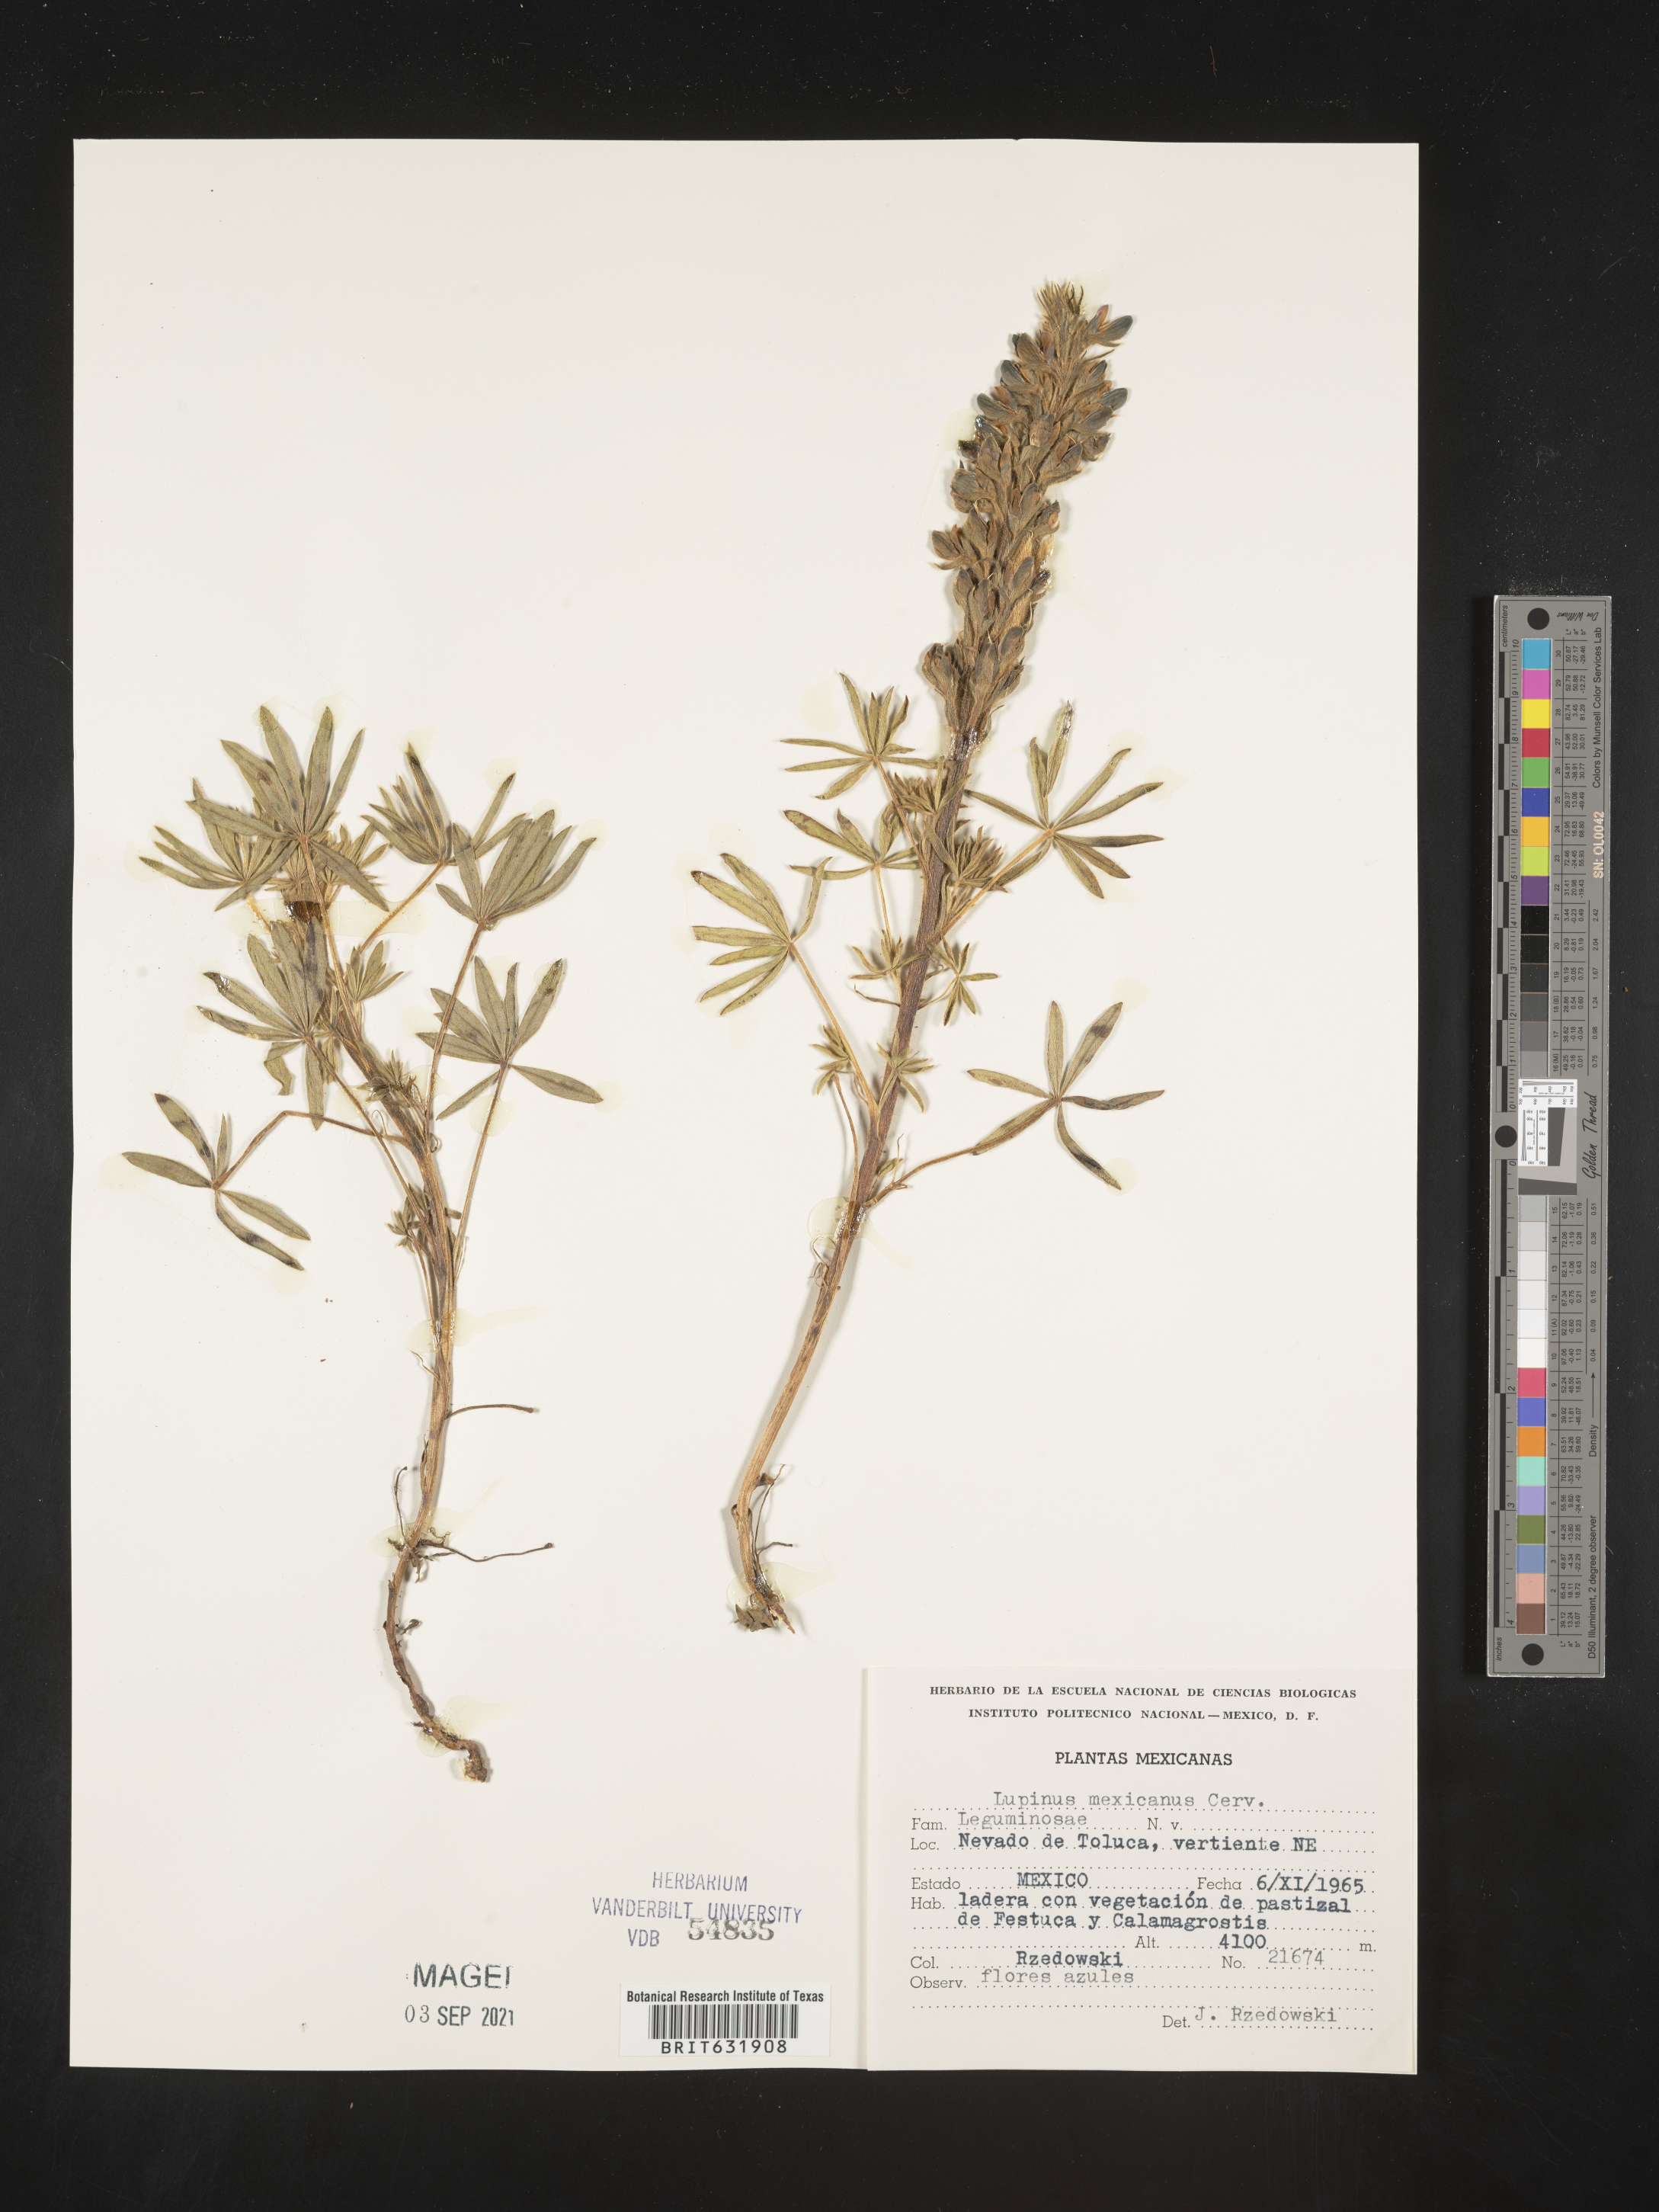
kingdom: Plantae
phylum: Tracheophyta
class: Magnoliopsida
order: Fabales
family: Fabaceae
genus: Lupinus
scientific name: Lupinus
